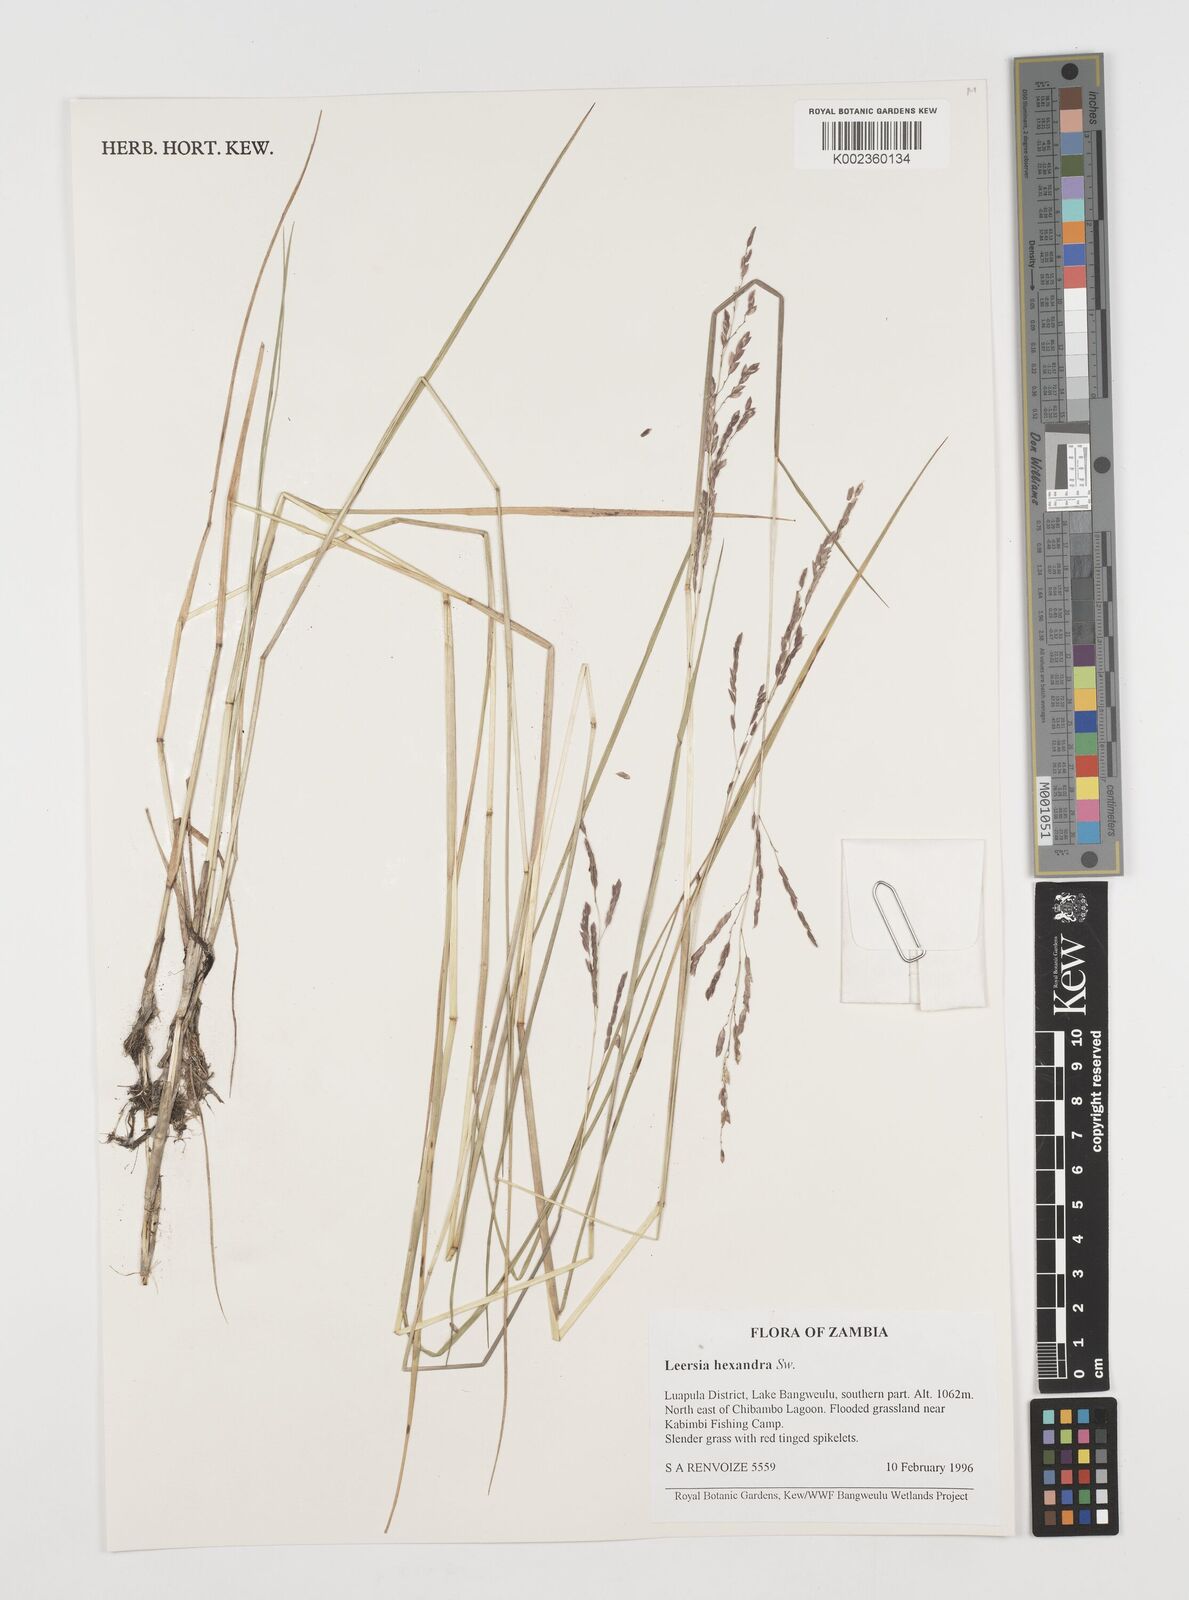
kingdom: Plantae
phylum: Tracheophyta
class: Liliopsida
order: Poales
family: Poaceae
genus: Leersia
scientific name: Leersia hexandra
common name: Southern cut grass
